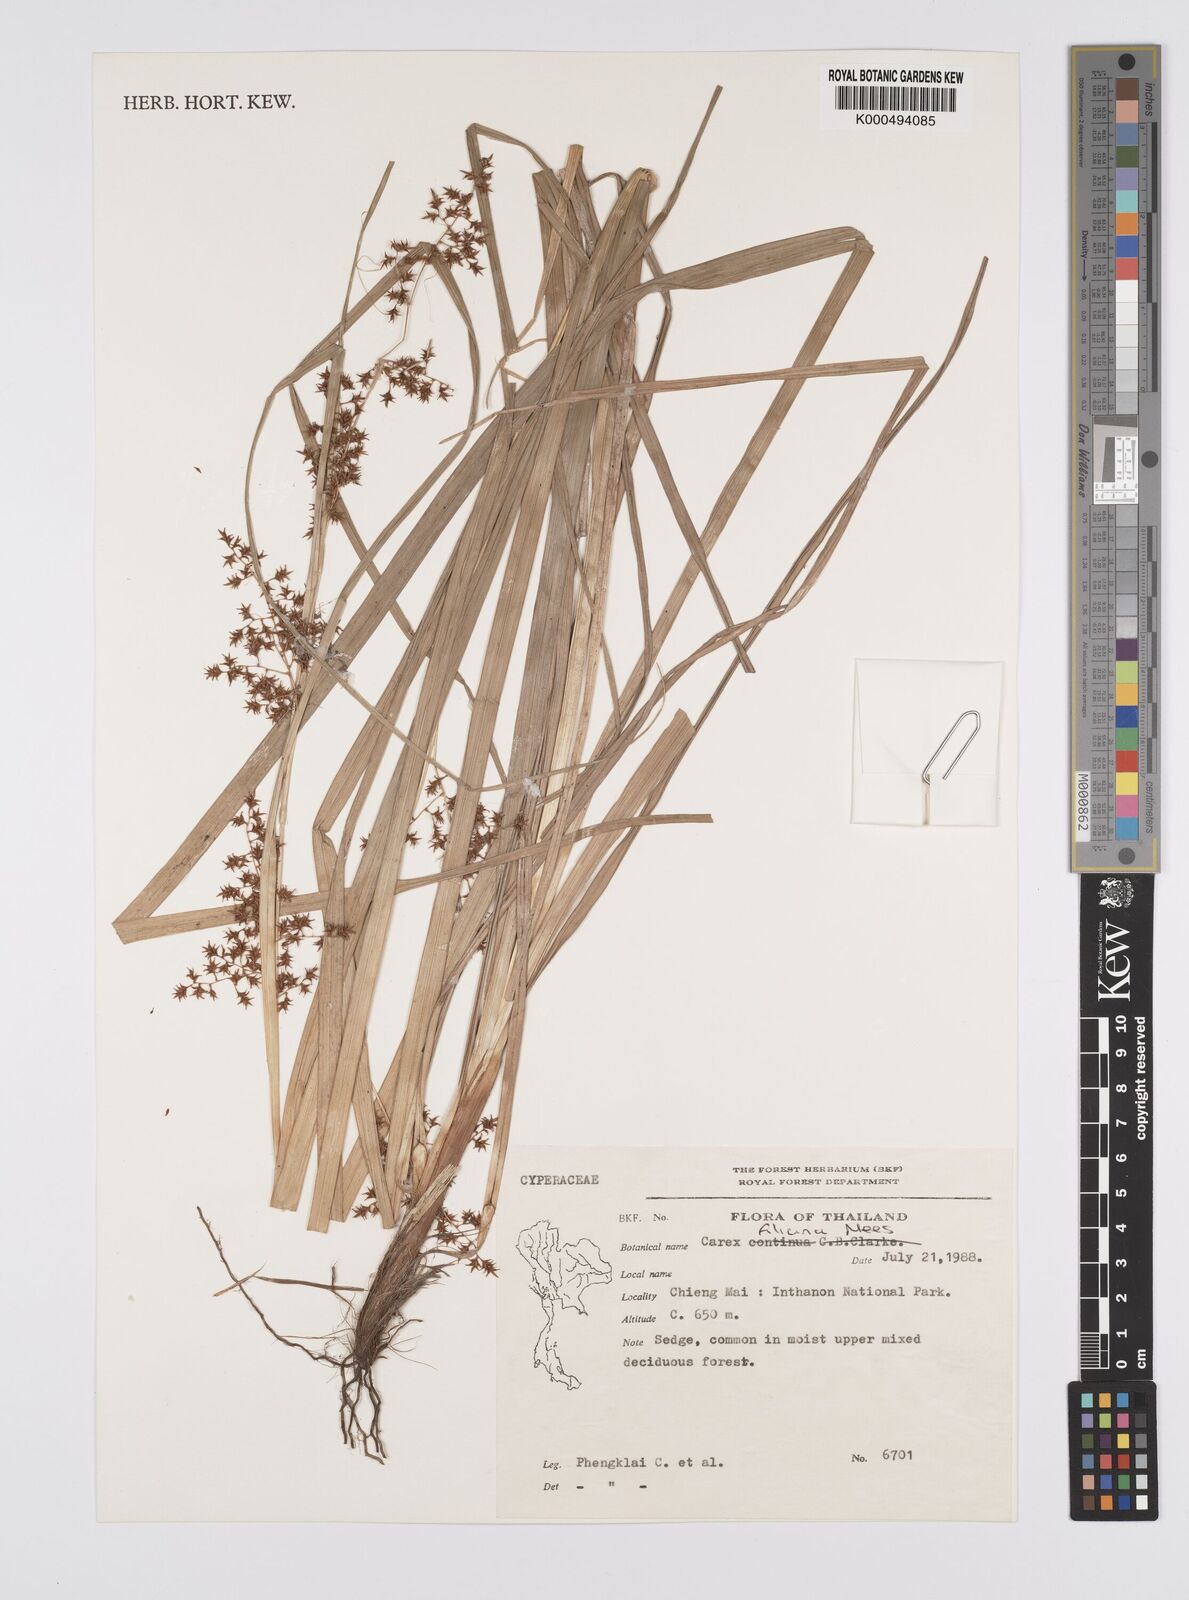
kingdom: Plantae
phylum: Tracheophyta
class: Liliopsida
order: Poales
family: Cyperaceae
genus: Carex
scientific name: Carex baccans
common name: Crimson seeded sedge
